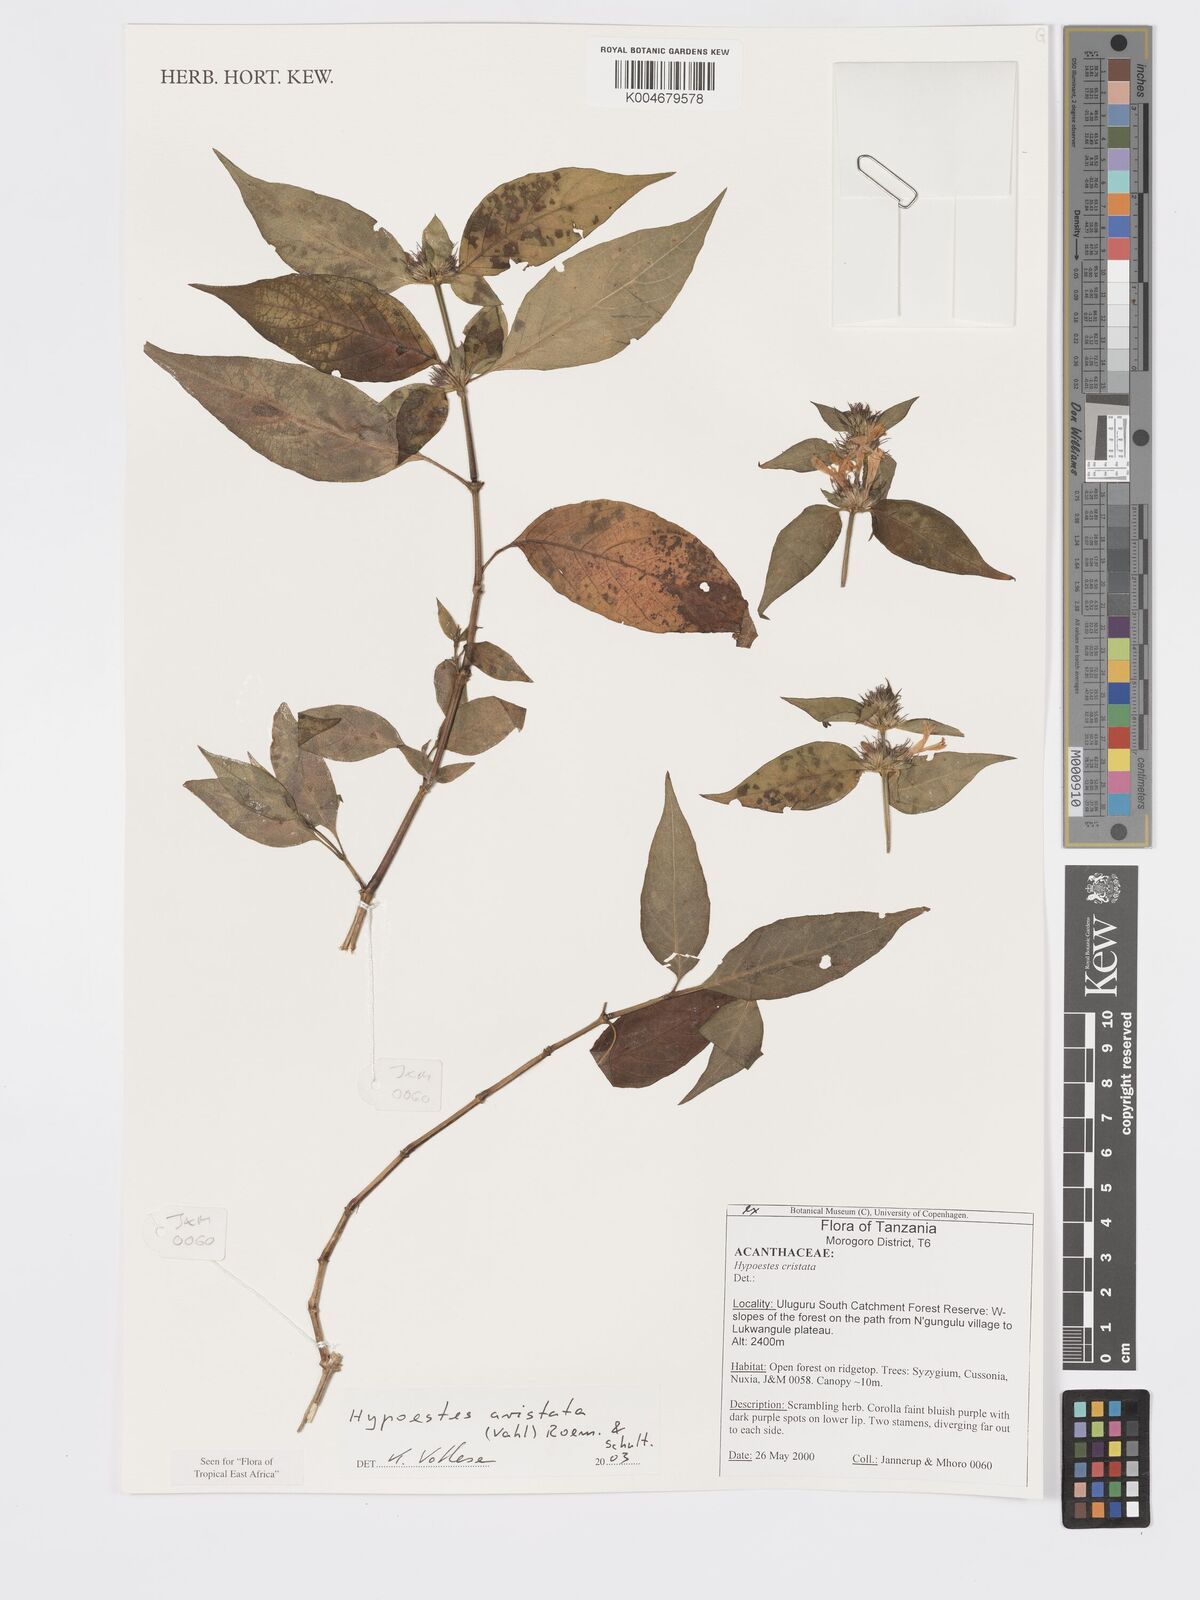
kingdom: Plantae
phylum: Tracheophyta
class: Magnoliopsida
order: Lamiales
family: Acanthaceae
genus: Hypoestes
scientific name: Hypoestes aristata
